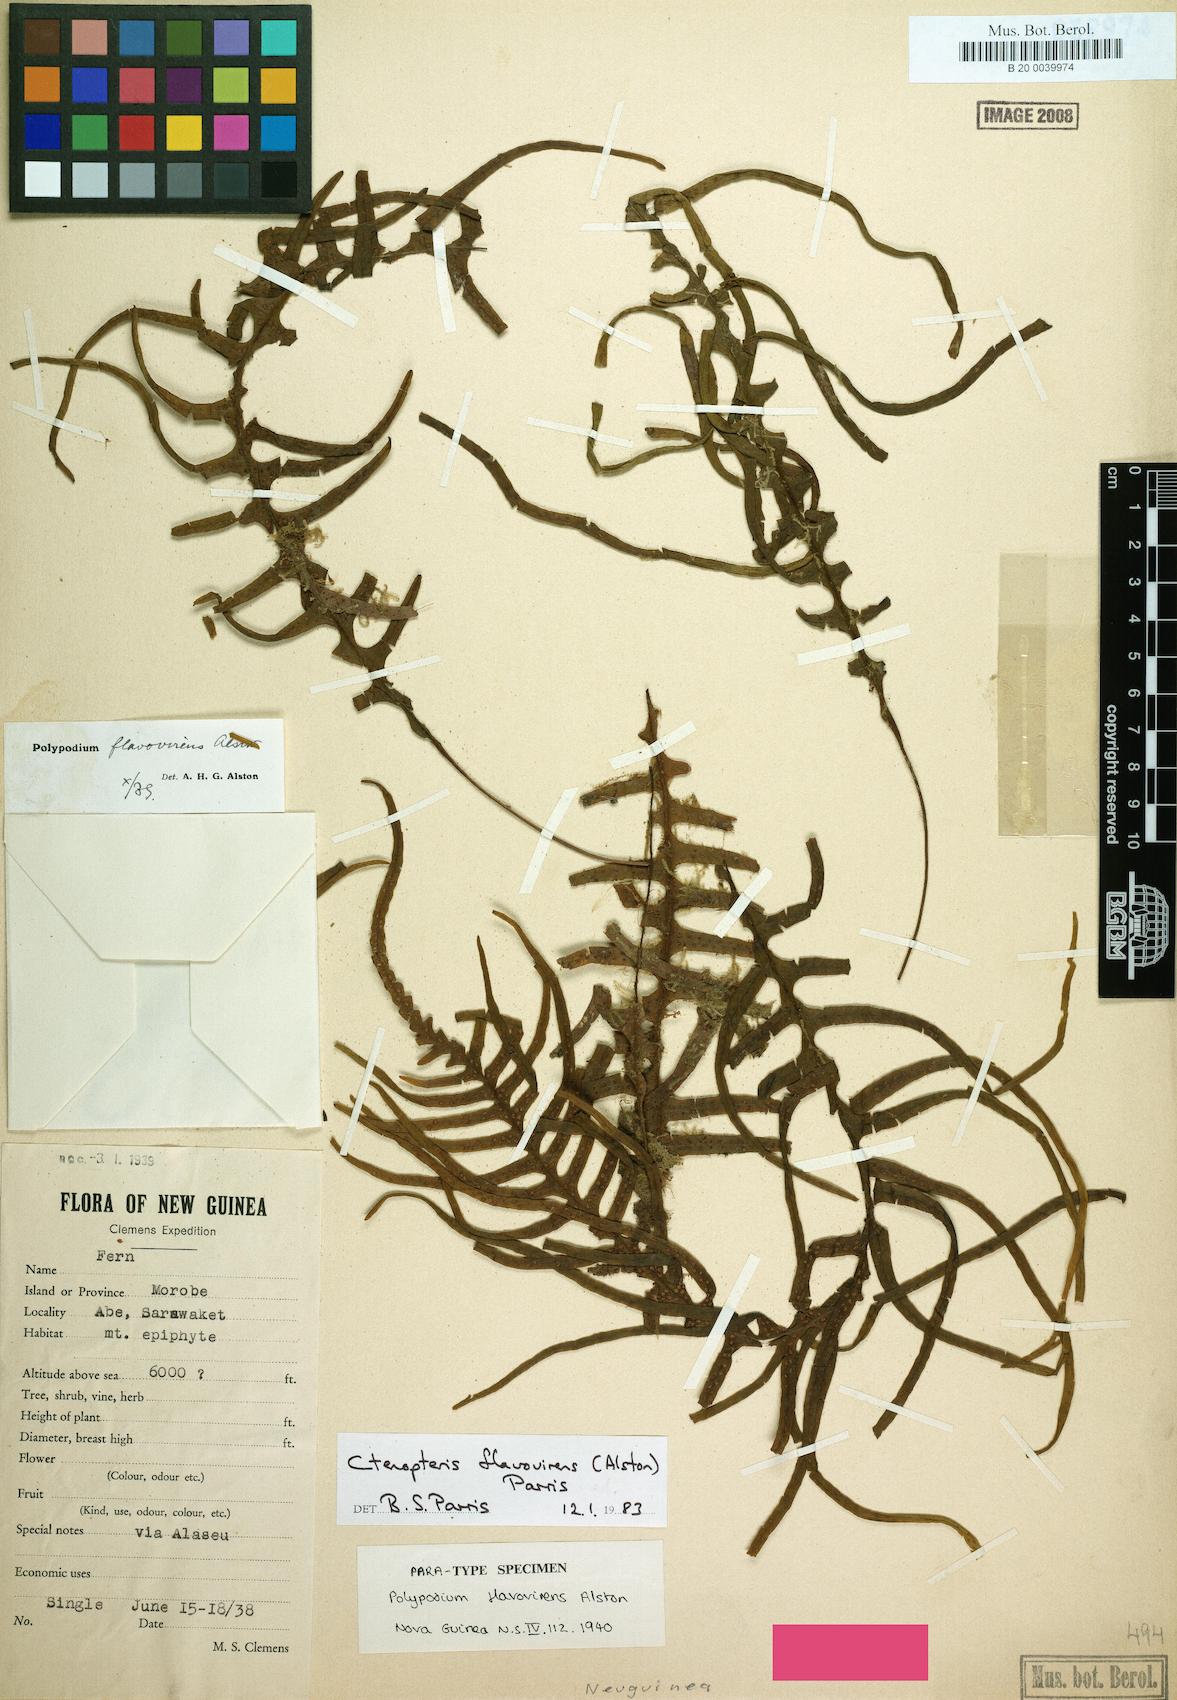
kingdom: Plantae
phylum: Tracheophyta
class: Polypodiopsida
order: Polypodiales
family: Polypodiaceae
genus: Oreogrammitis
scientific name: Oreogrammitis flavovirens
